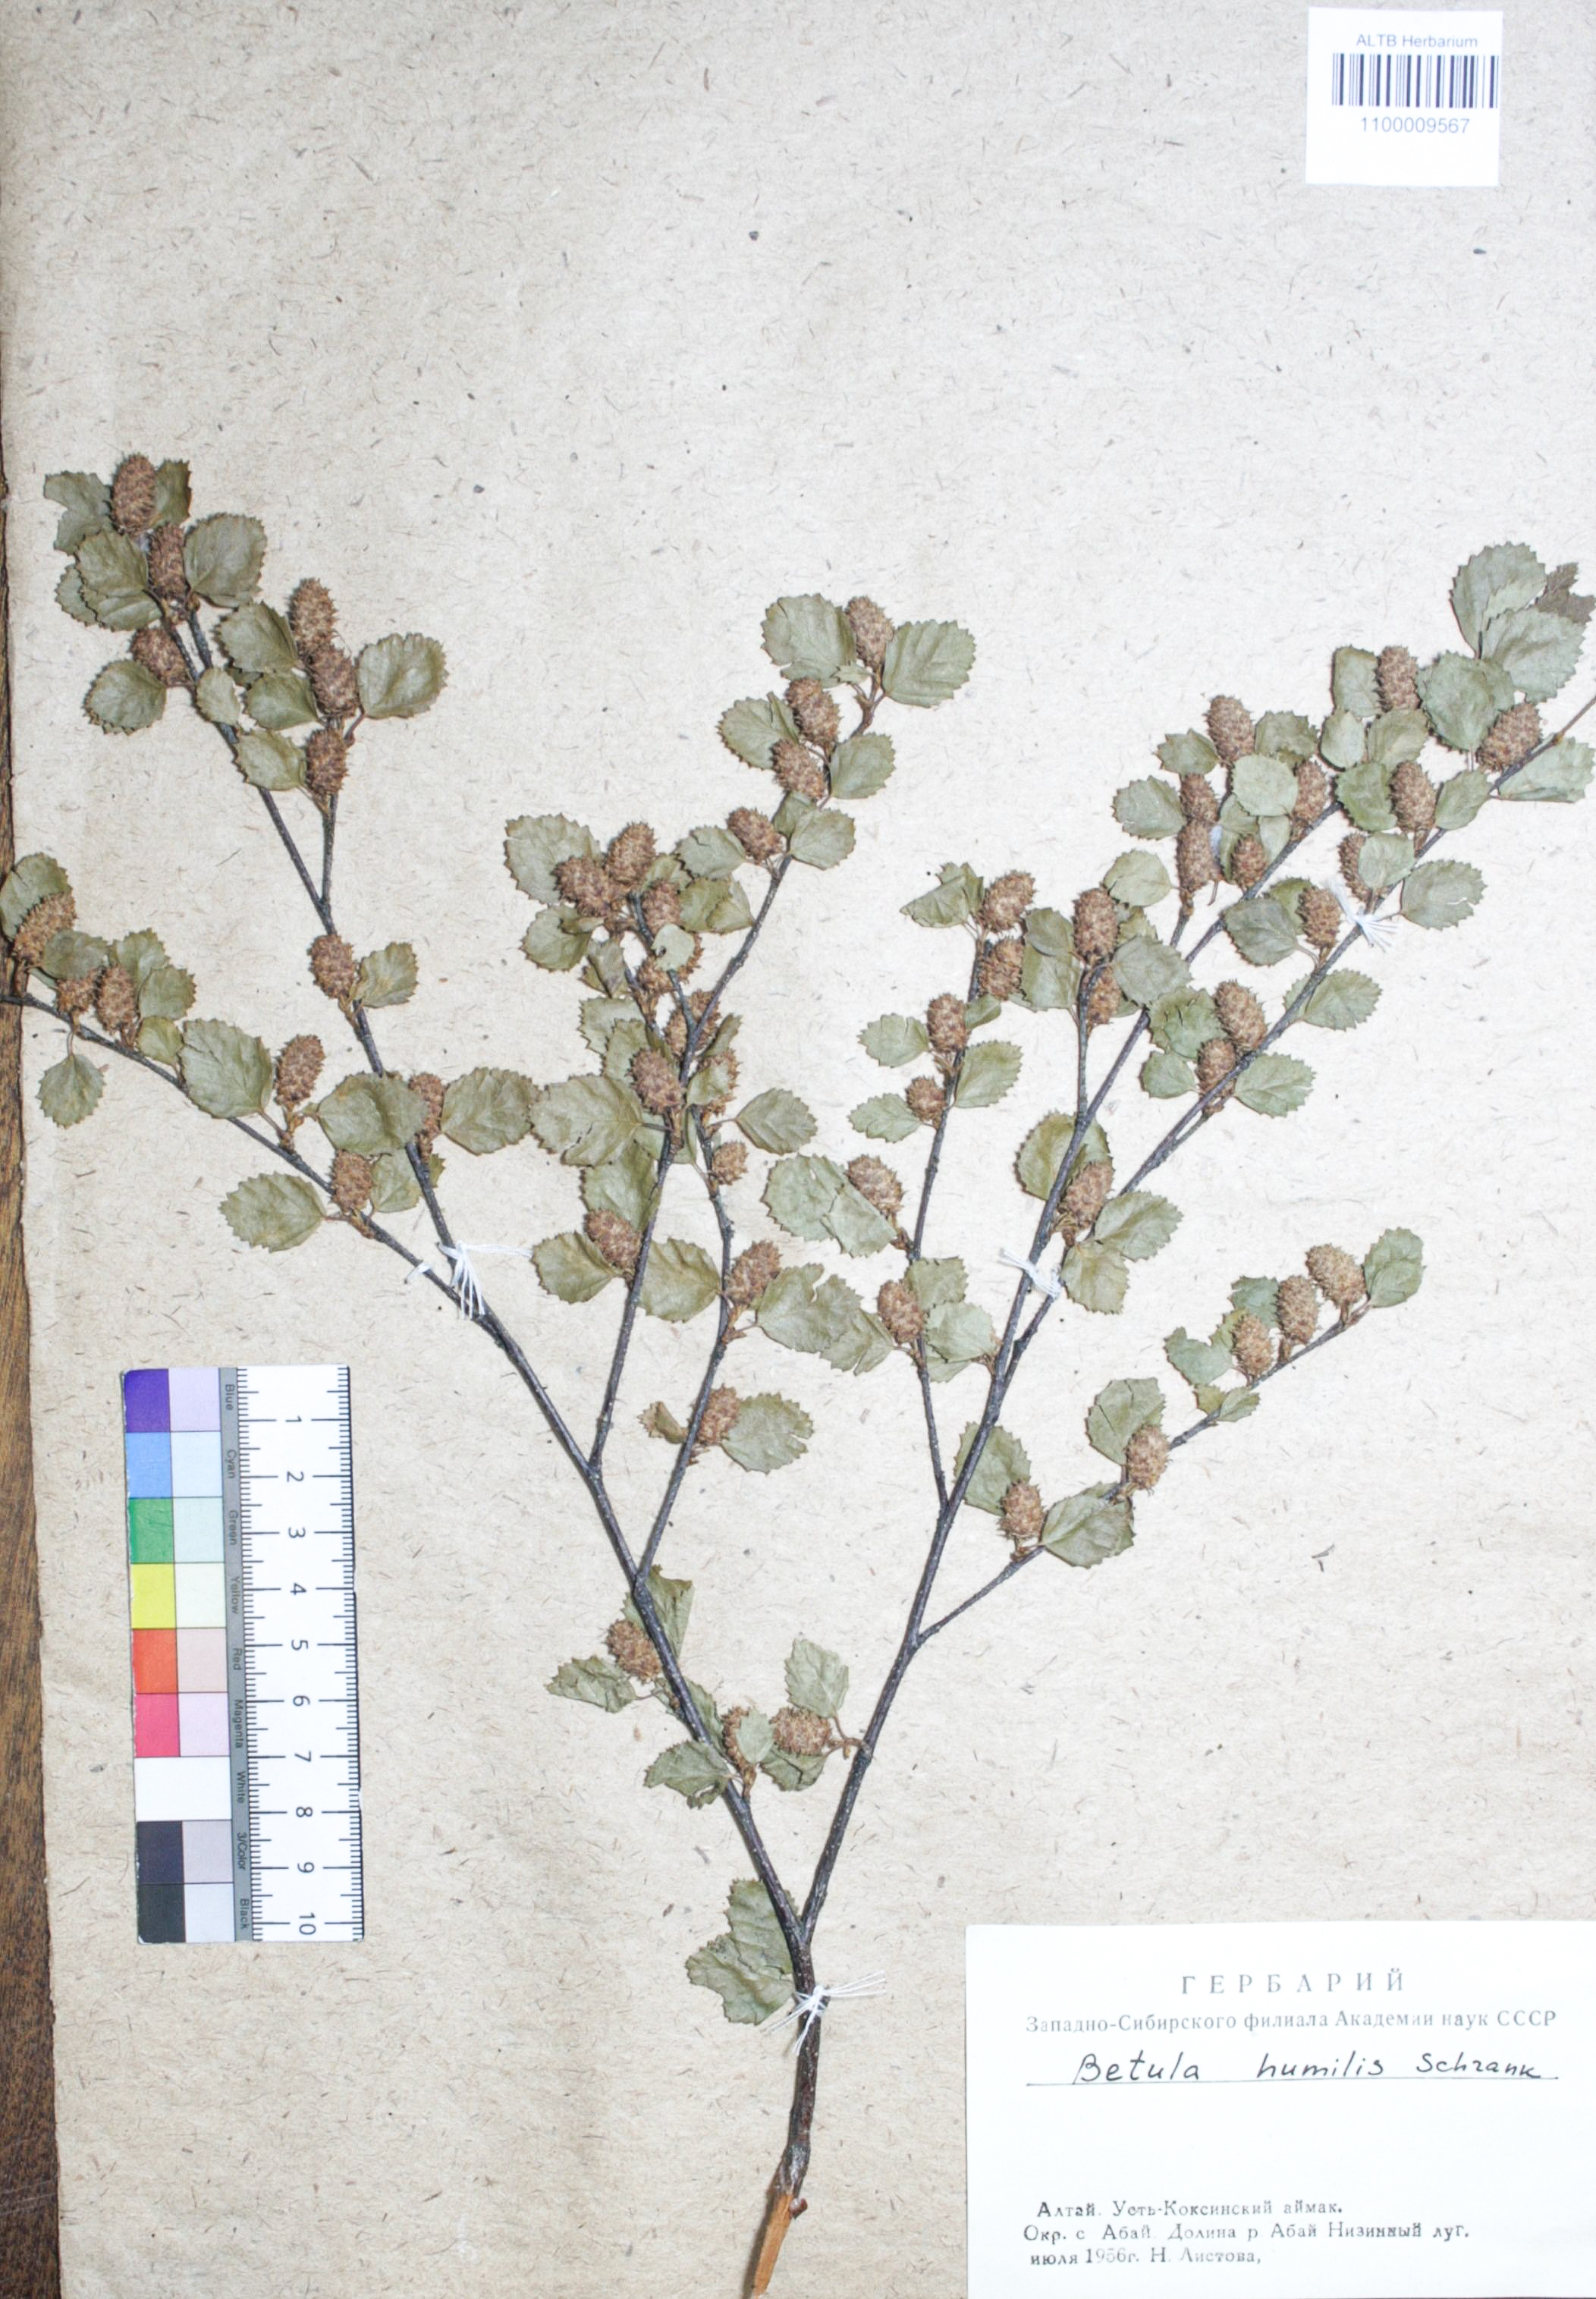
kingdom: Plantae
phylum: Tracheophyta
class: Magnoliopsida
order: Fagales
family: Betulaceae
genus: Betula
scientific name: Betula humilis
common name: Shrubby birch
